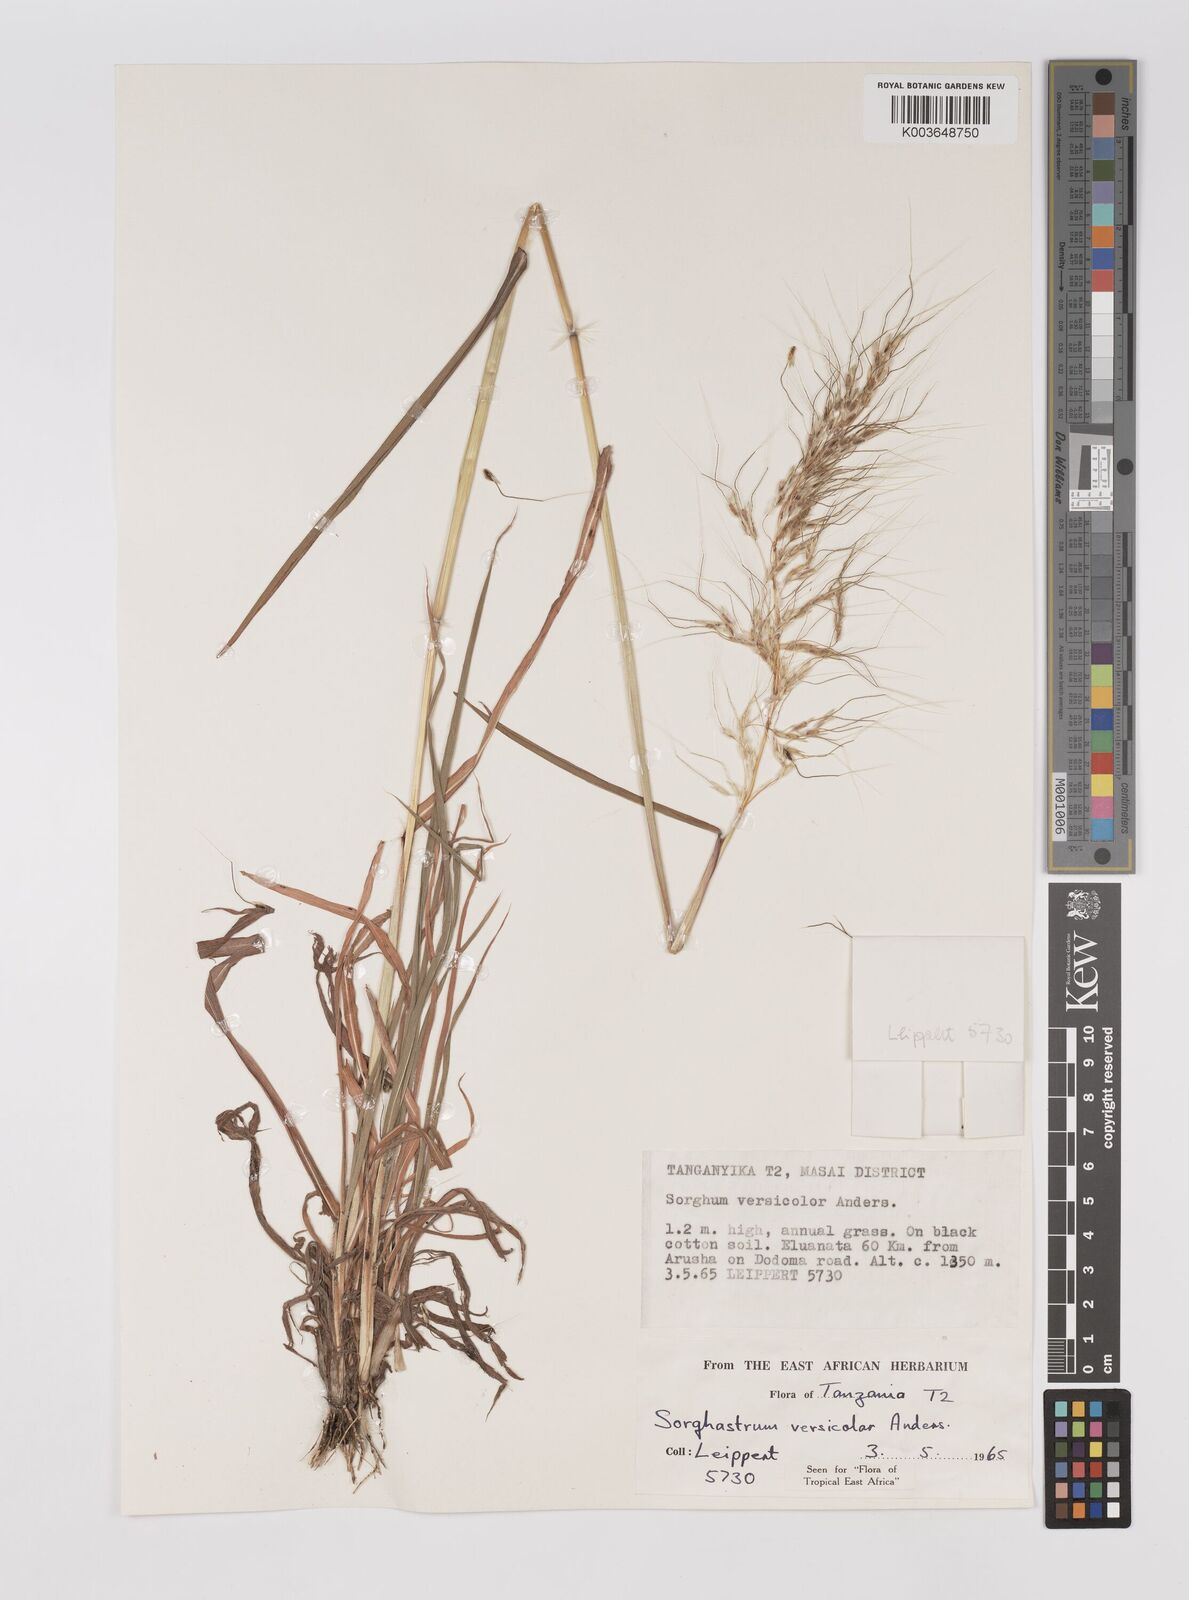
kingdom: Plantae
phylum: Tracheophyta
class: Liliopsida
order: Poales
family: Poaceae
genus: Sarga
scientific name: Sarga versicolor
